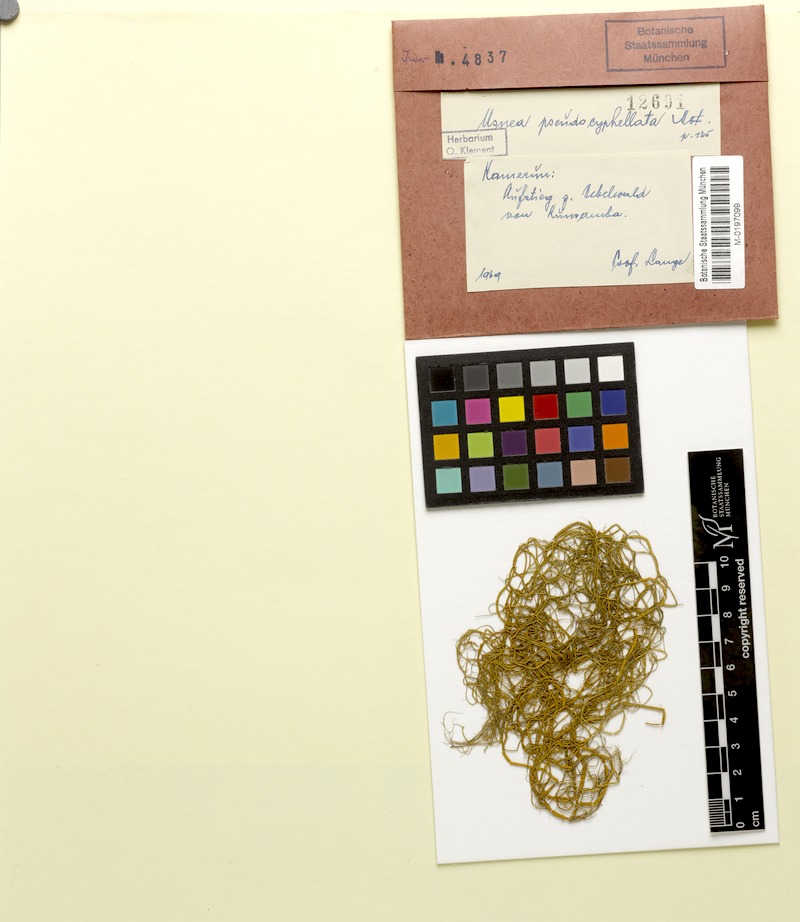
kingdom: Fungi
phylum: Ascomycota
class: Lecanoromycetes
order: Lecanorales
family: Parmeliaceae
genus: Usnea
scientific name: Usnea
